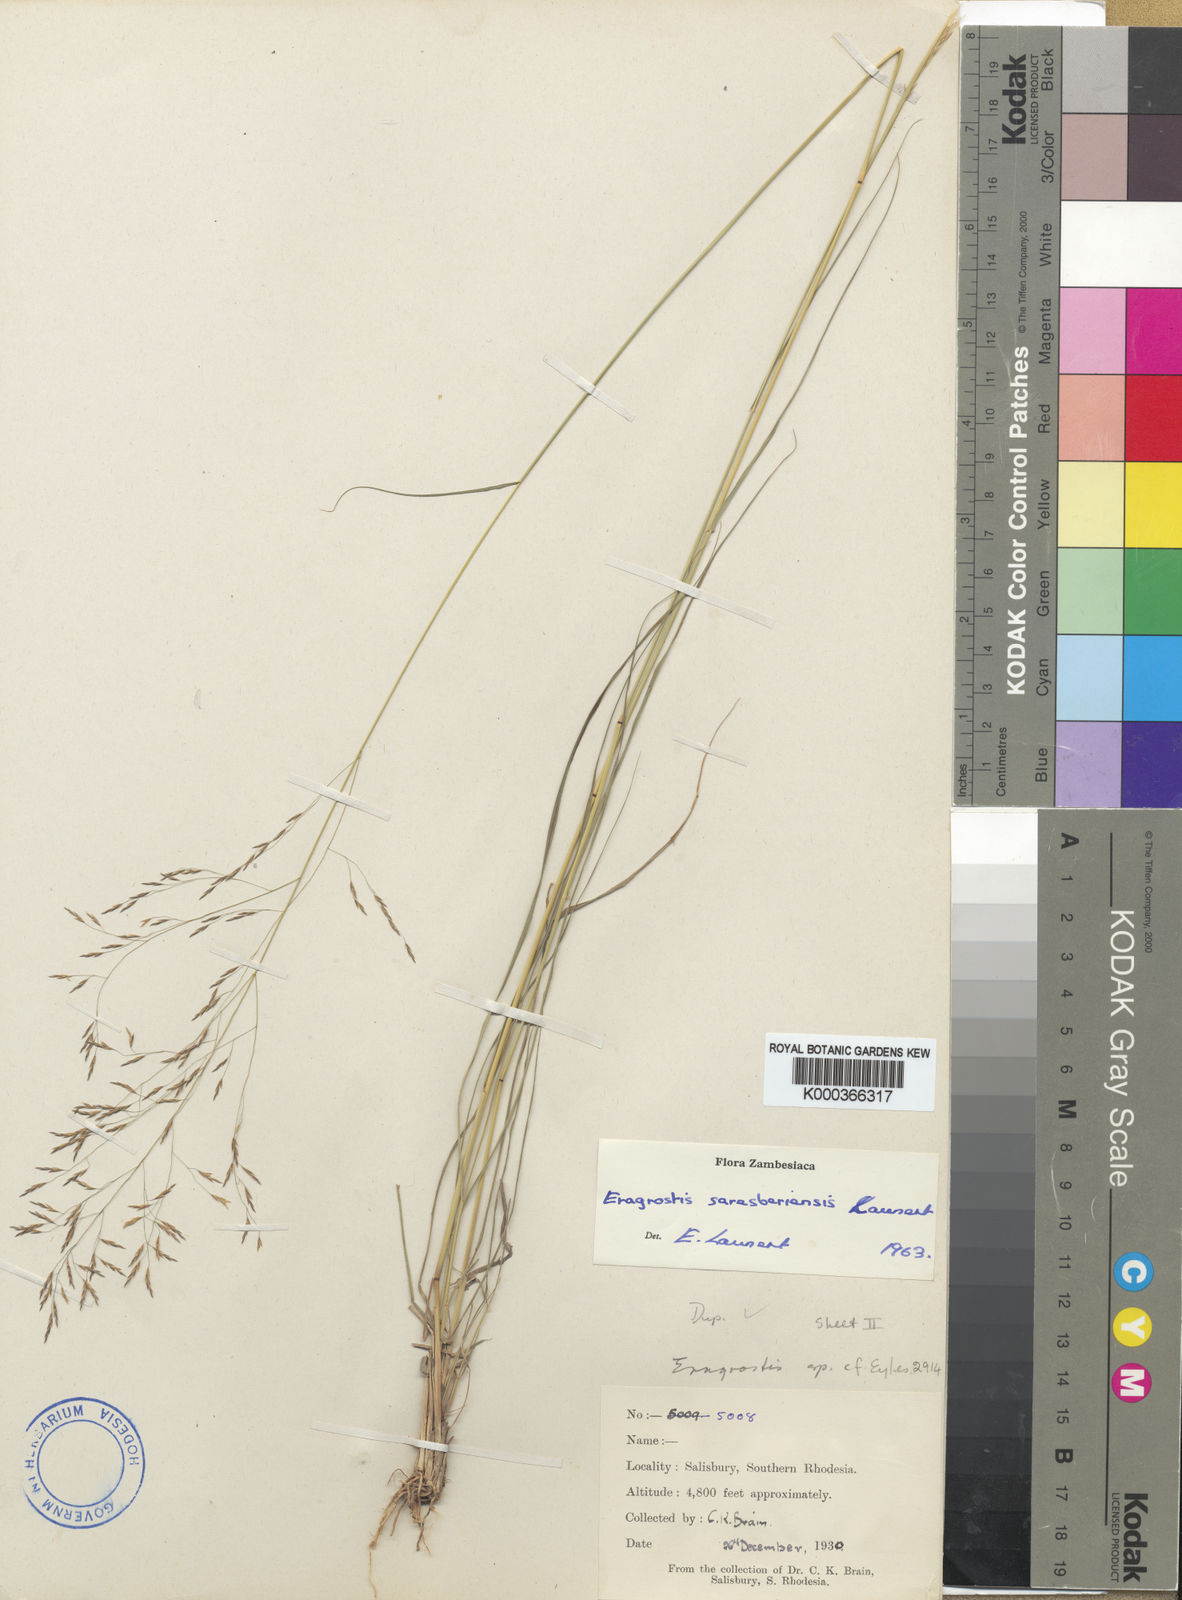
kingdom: Plantae
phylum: Tracheophyta
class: Liliopsida
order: Poales
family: Poaceae
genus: Eragrostis
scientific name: Eragrostis saresberiensis
